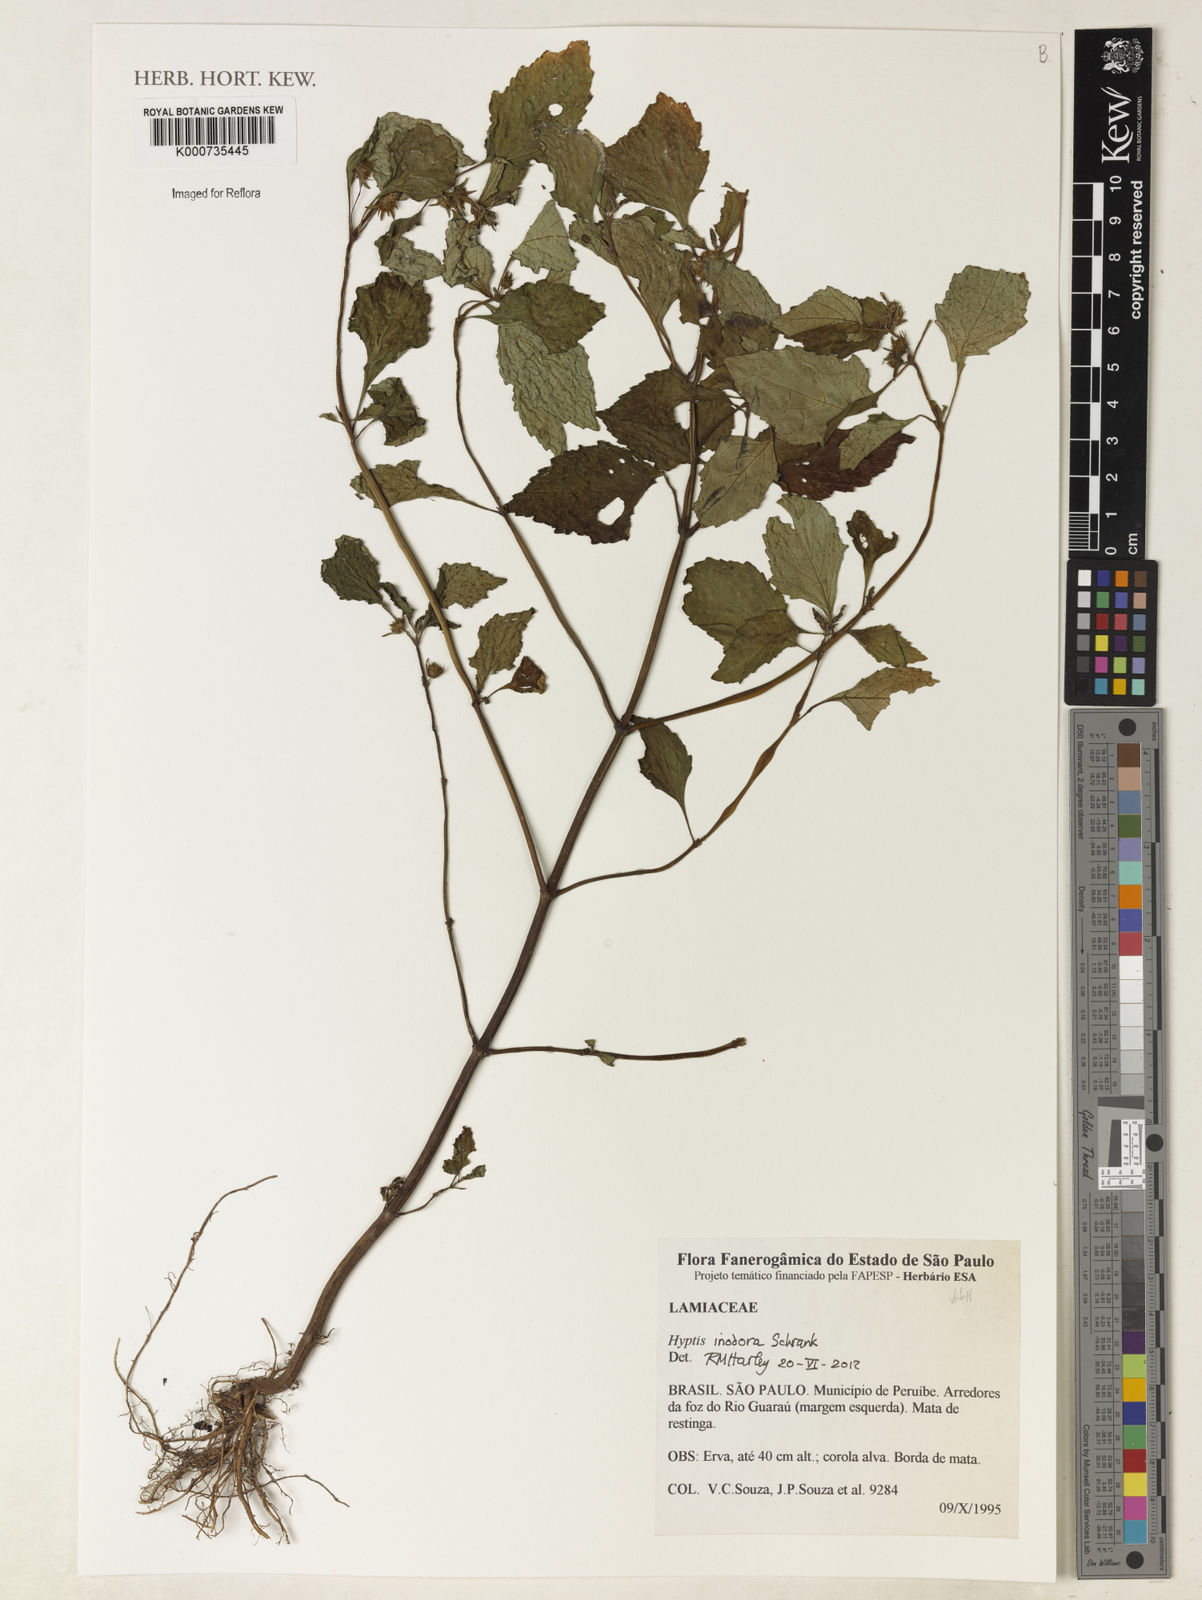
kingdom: Plantae
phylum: Tracheophyta
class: Magnoliopsida
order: Lamiales
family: Lamiaceae
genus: Hyptis
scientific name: Hyptis inodora
